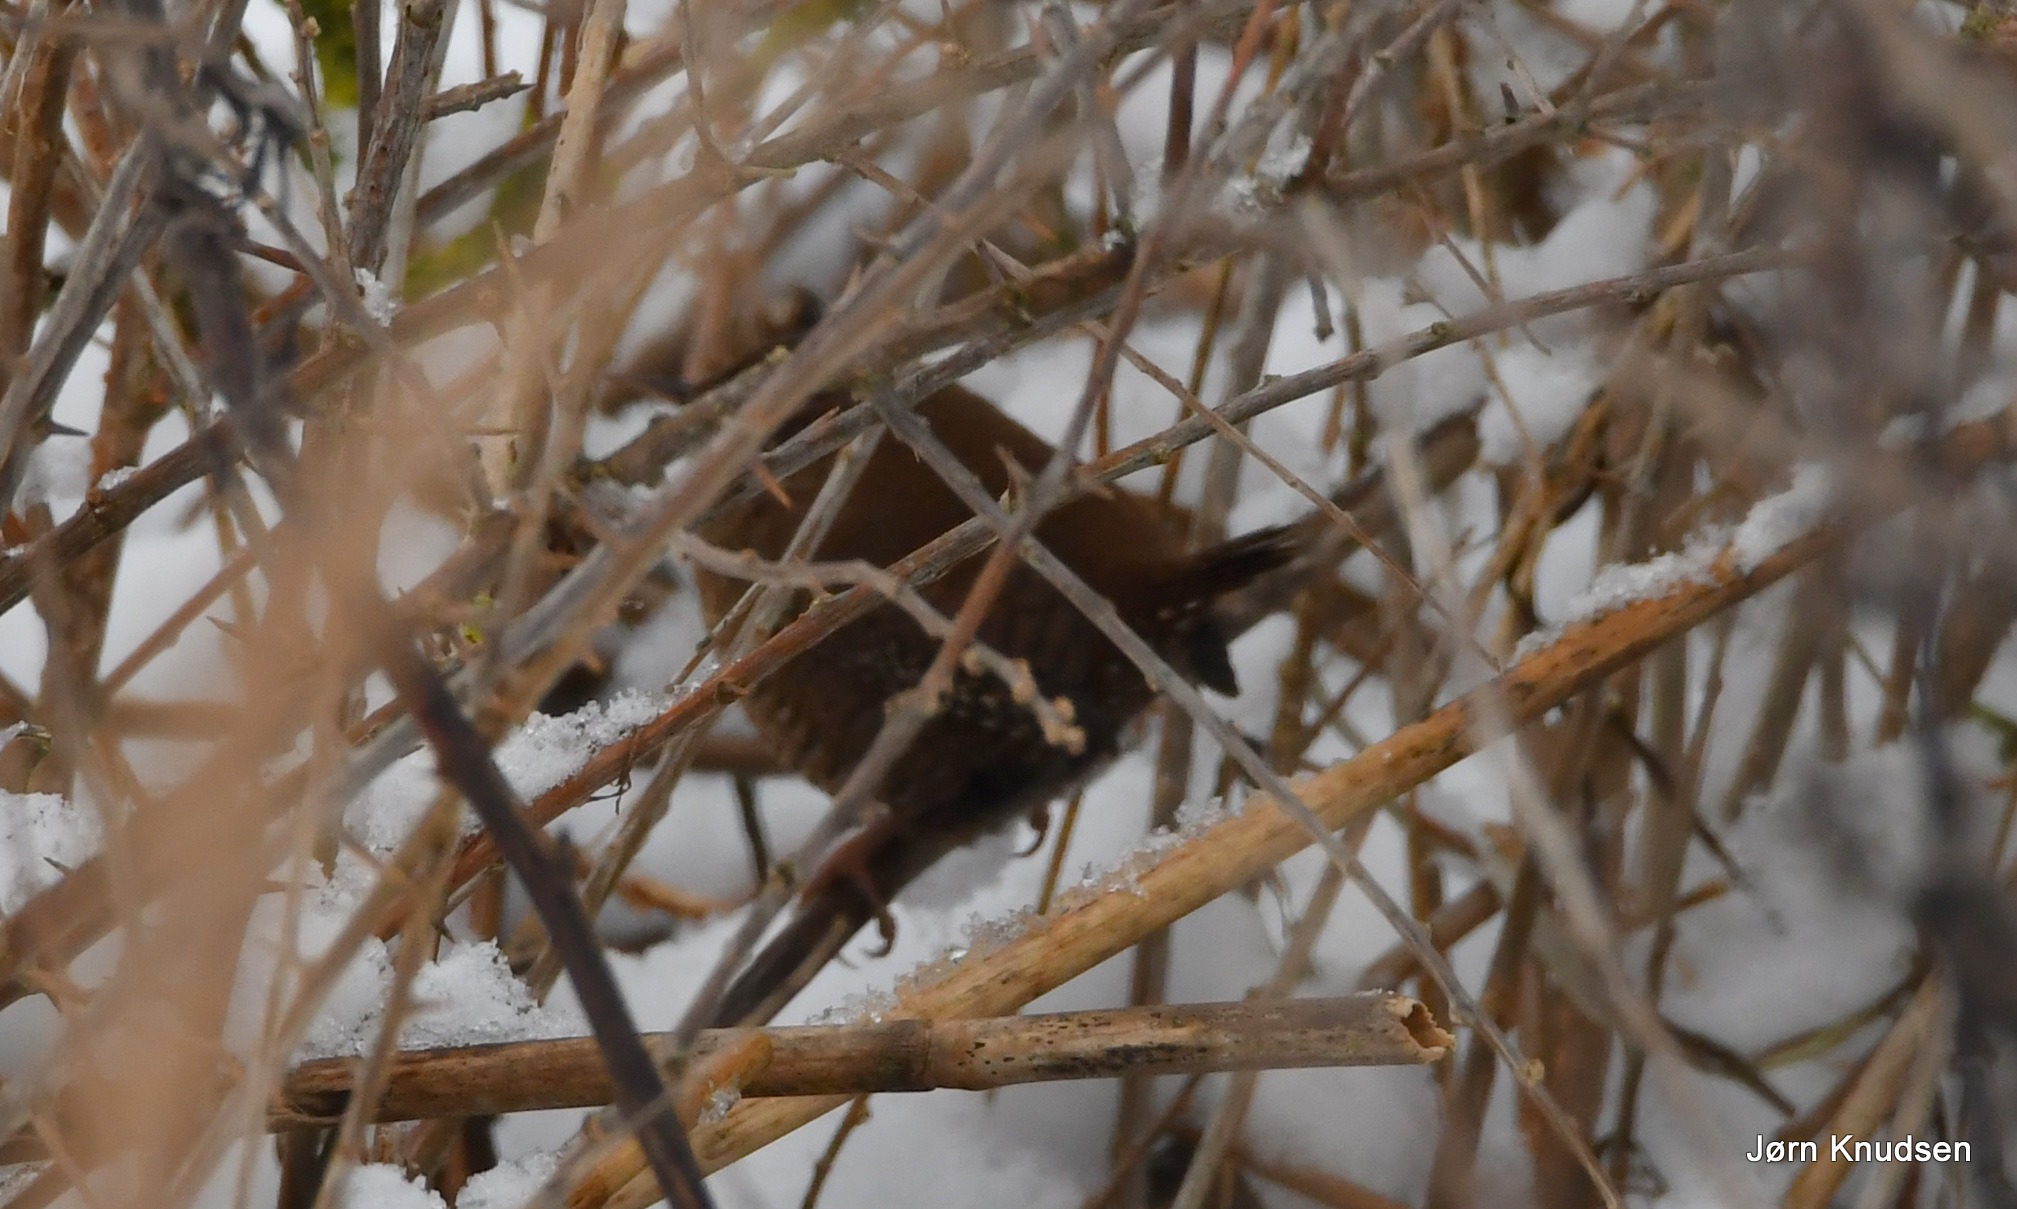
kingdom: Animalia
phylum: Chordata
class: Aves
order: Passeriformes
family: Troglodytidae
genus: Troglodytes
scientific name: Troglodytes troglodytes
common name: Gærdesmutte
